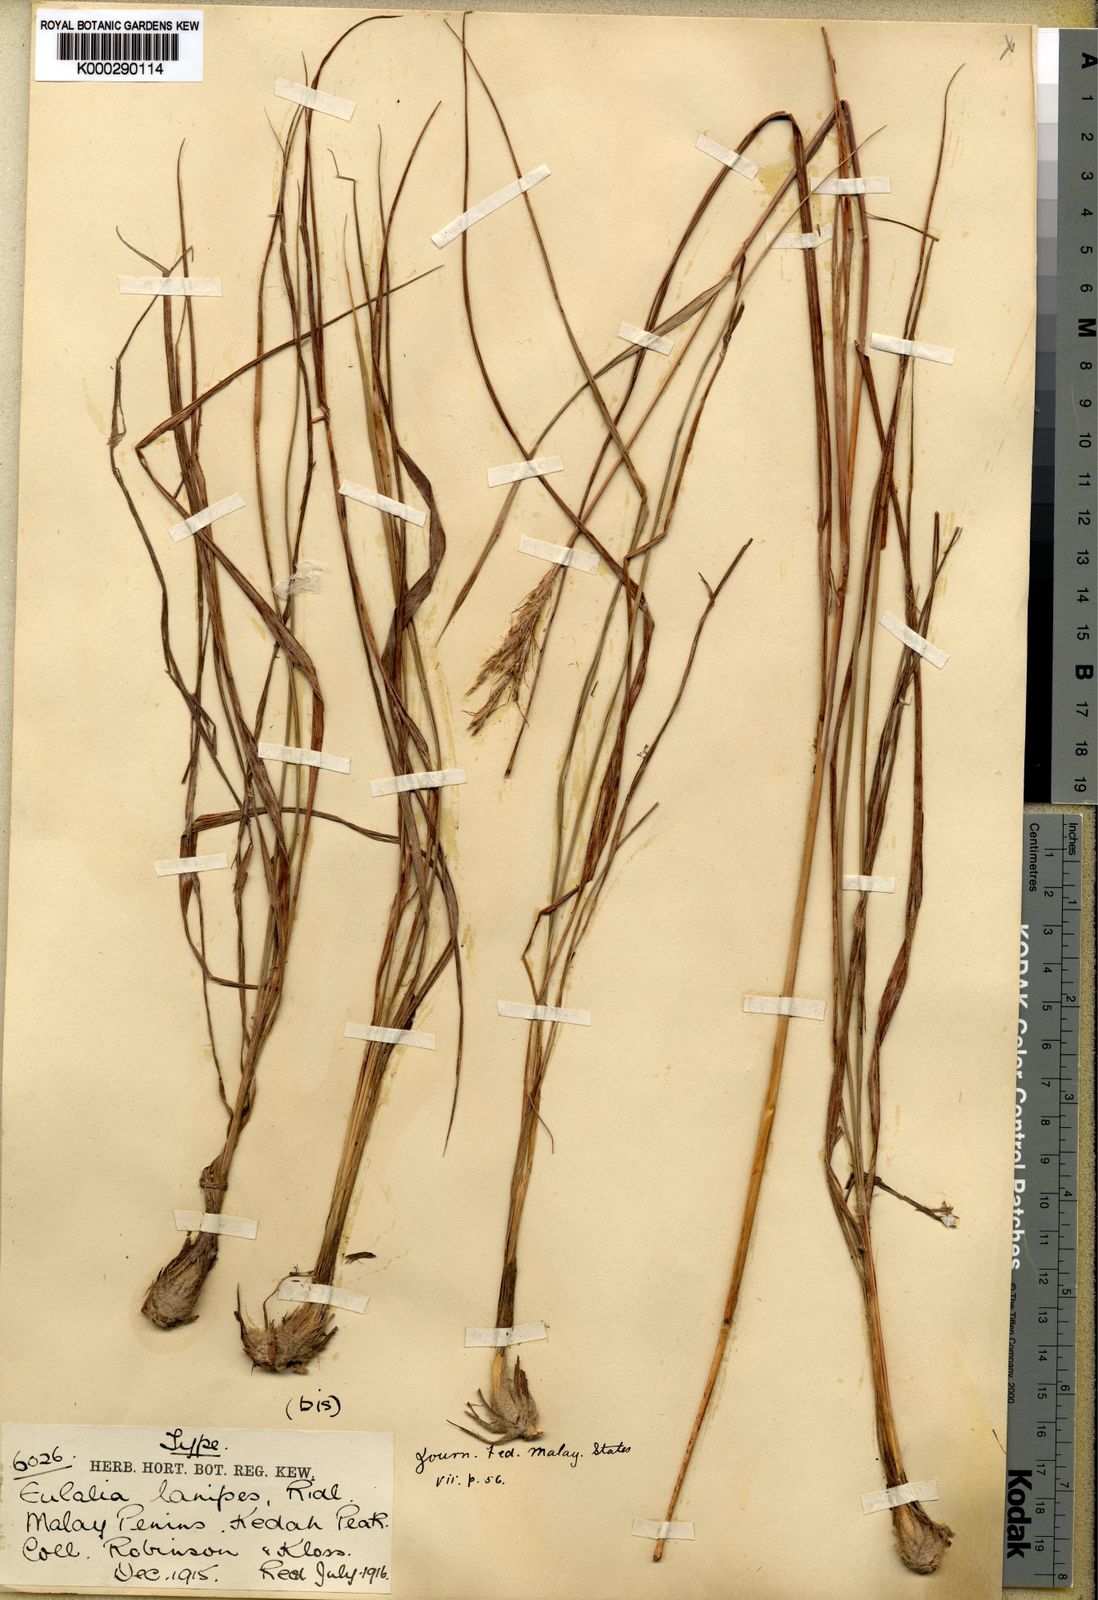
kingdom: Plantae
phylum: Tracheophyta
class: Liliopsida
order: Poales
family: Poaceae
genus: Pseudopogonatherum
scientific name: Pseudopogonatherum speciosum
